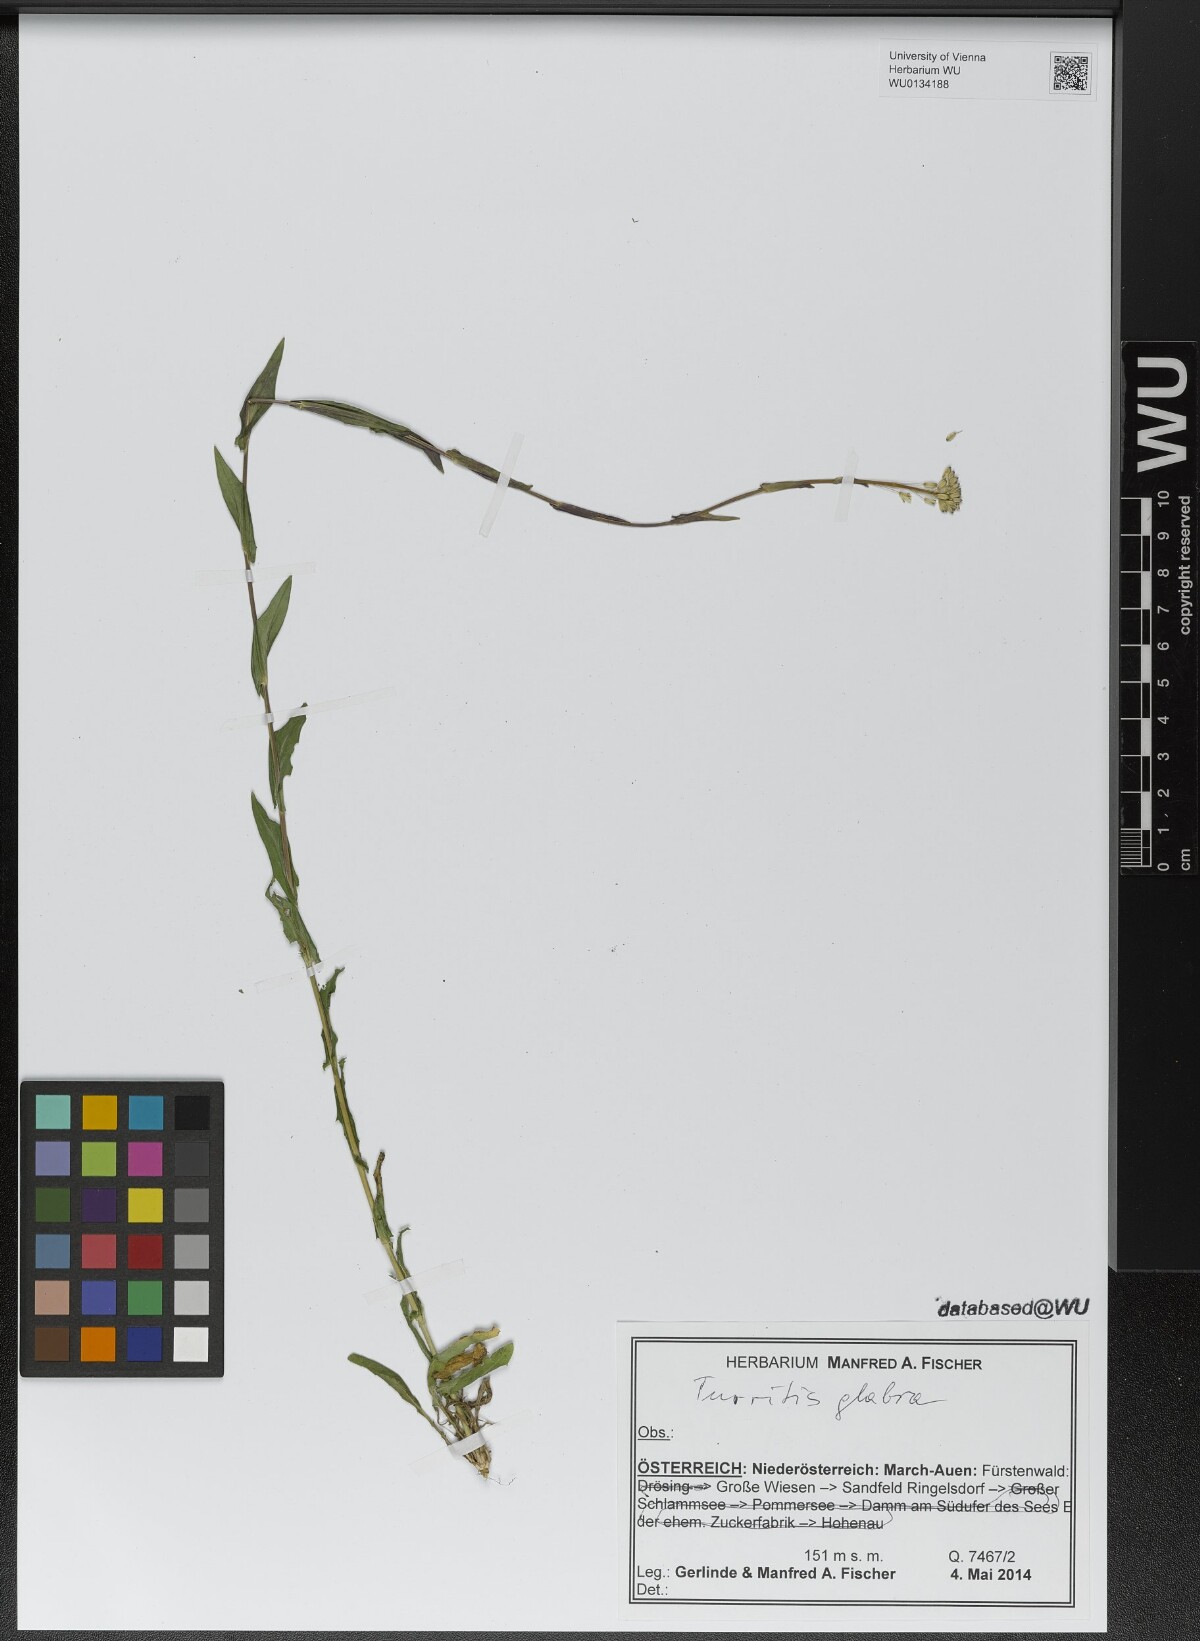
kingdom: Plantae
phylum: Tracheophyta
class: Magnoliopsida
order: Brassicales
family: Brassicaceae
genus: Turritis
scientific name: Turritis glabra
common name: Tower rockcress
